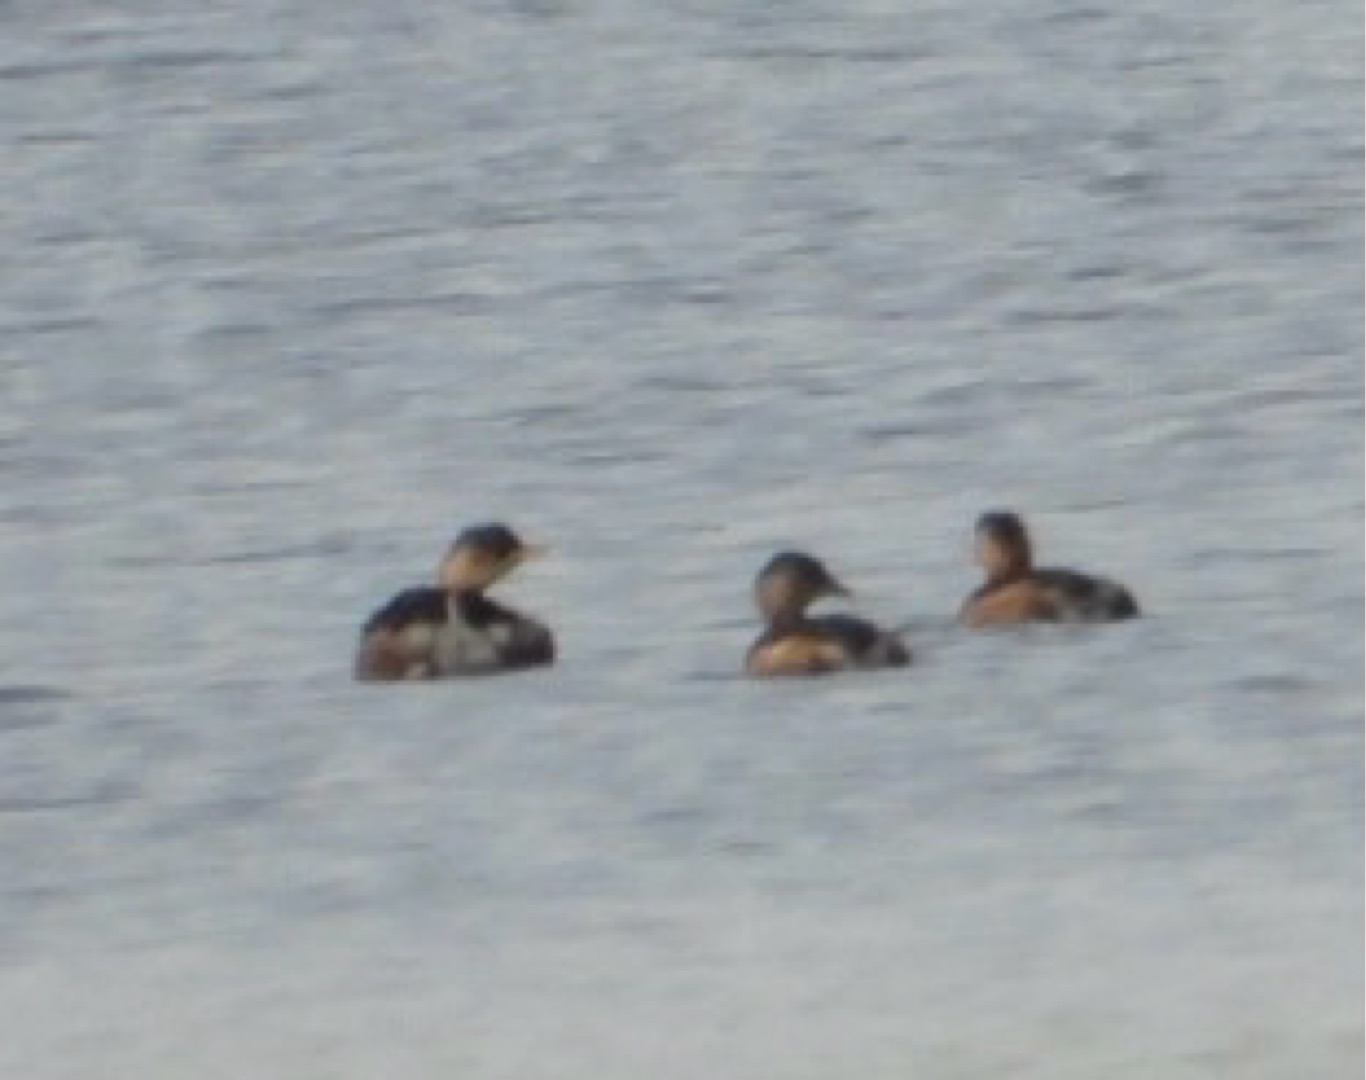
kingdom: Animalia
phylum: Chordata
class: Aves
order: Podicipediformes
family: Podicipedidae
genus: Tachybaptus
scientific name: Tachybaptus ruficollis
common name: Lille lappedykker
